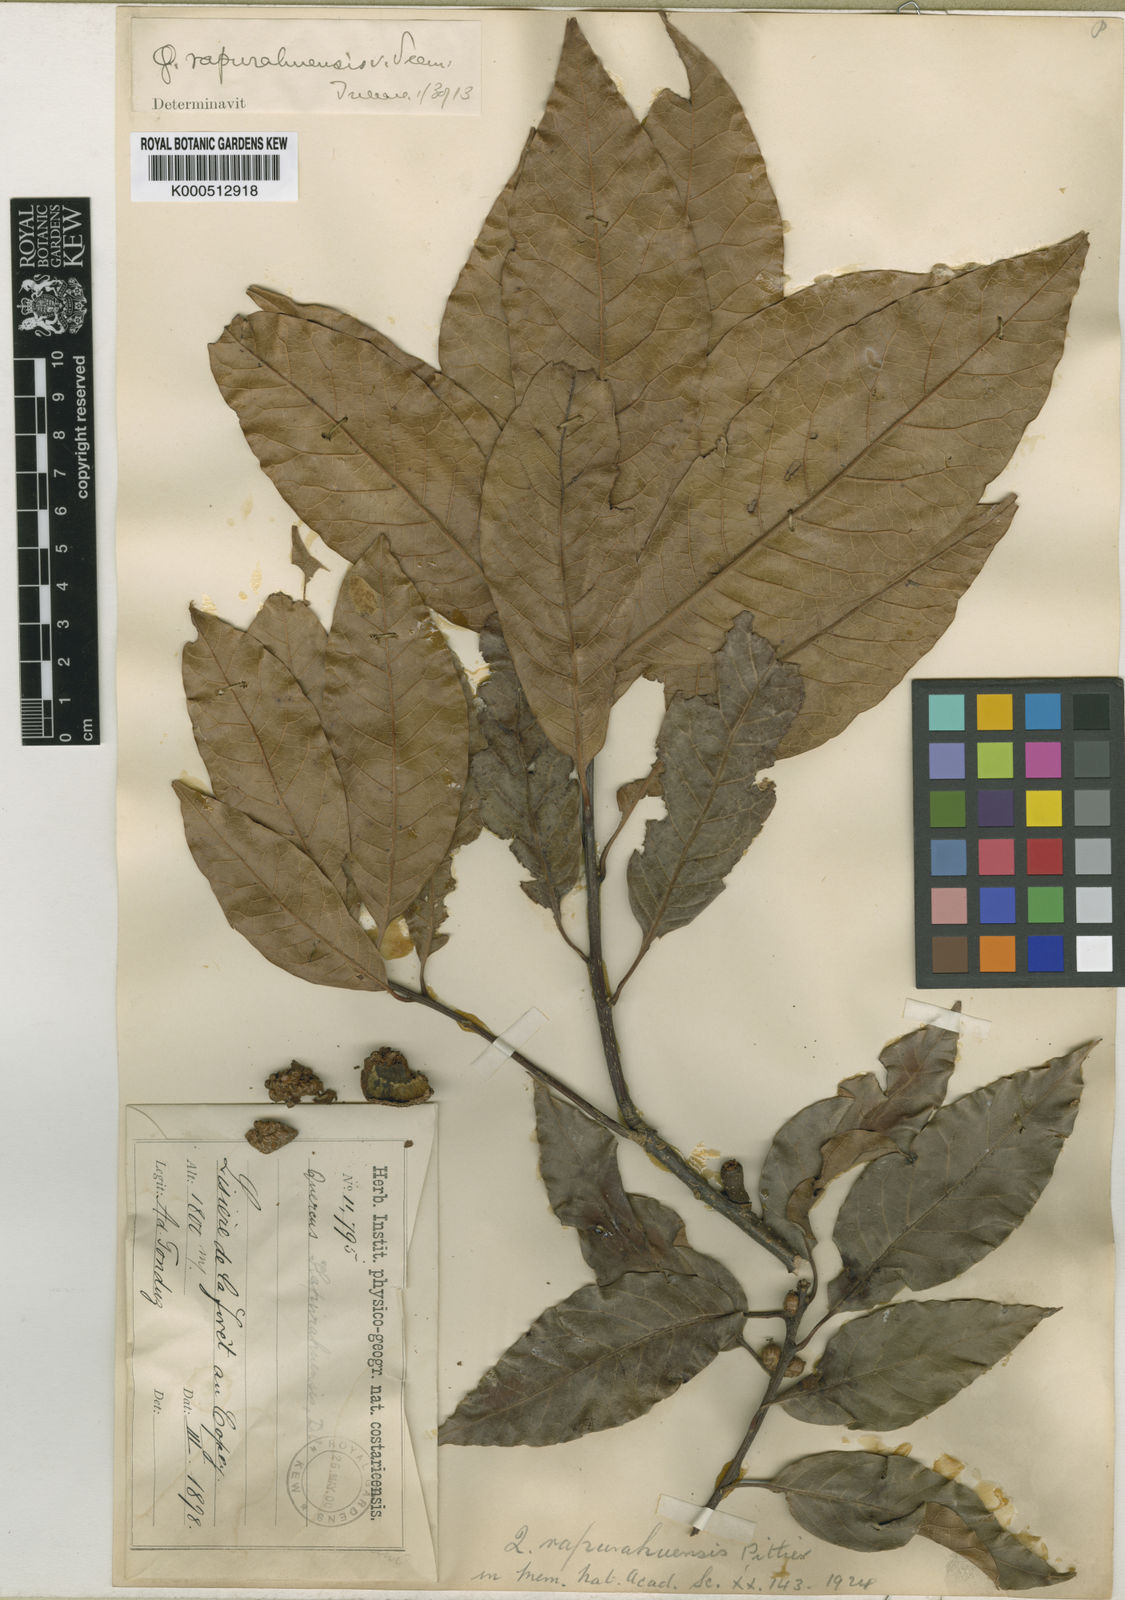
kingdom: Plantae
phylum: Tracheophyta
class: Magnoliopsida
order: Fagales
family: Fagaceae
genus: Quercus
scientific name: Quercus benthamii
